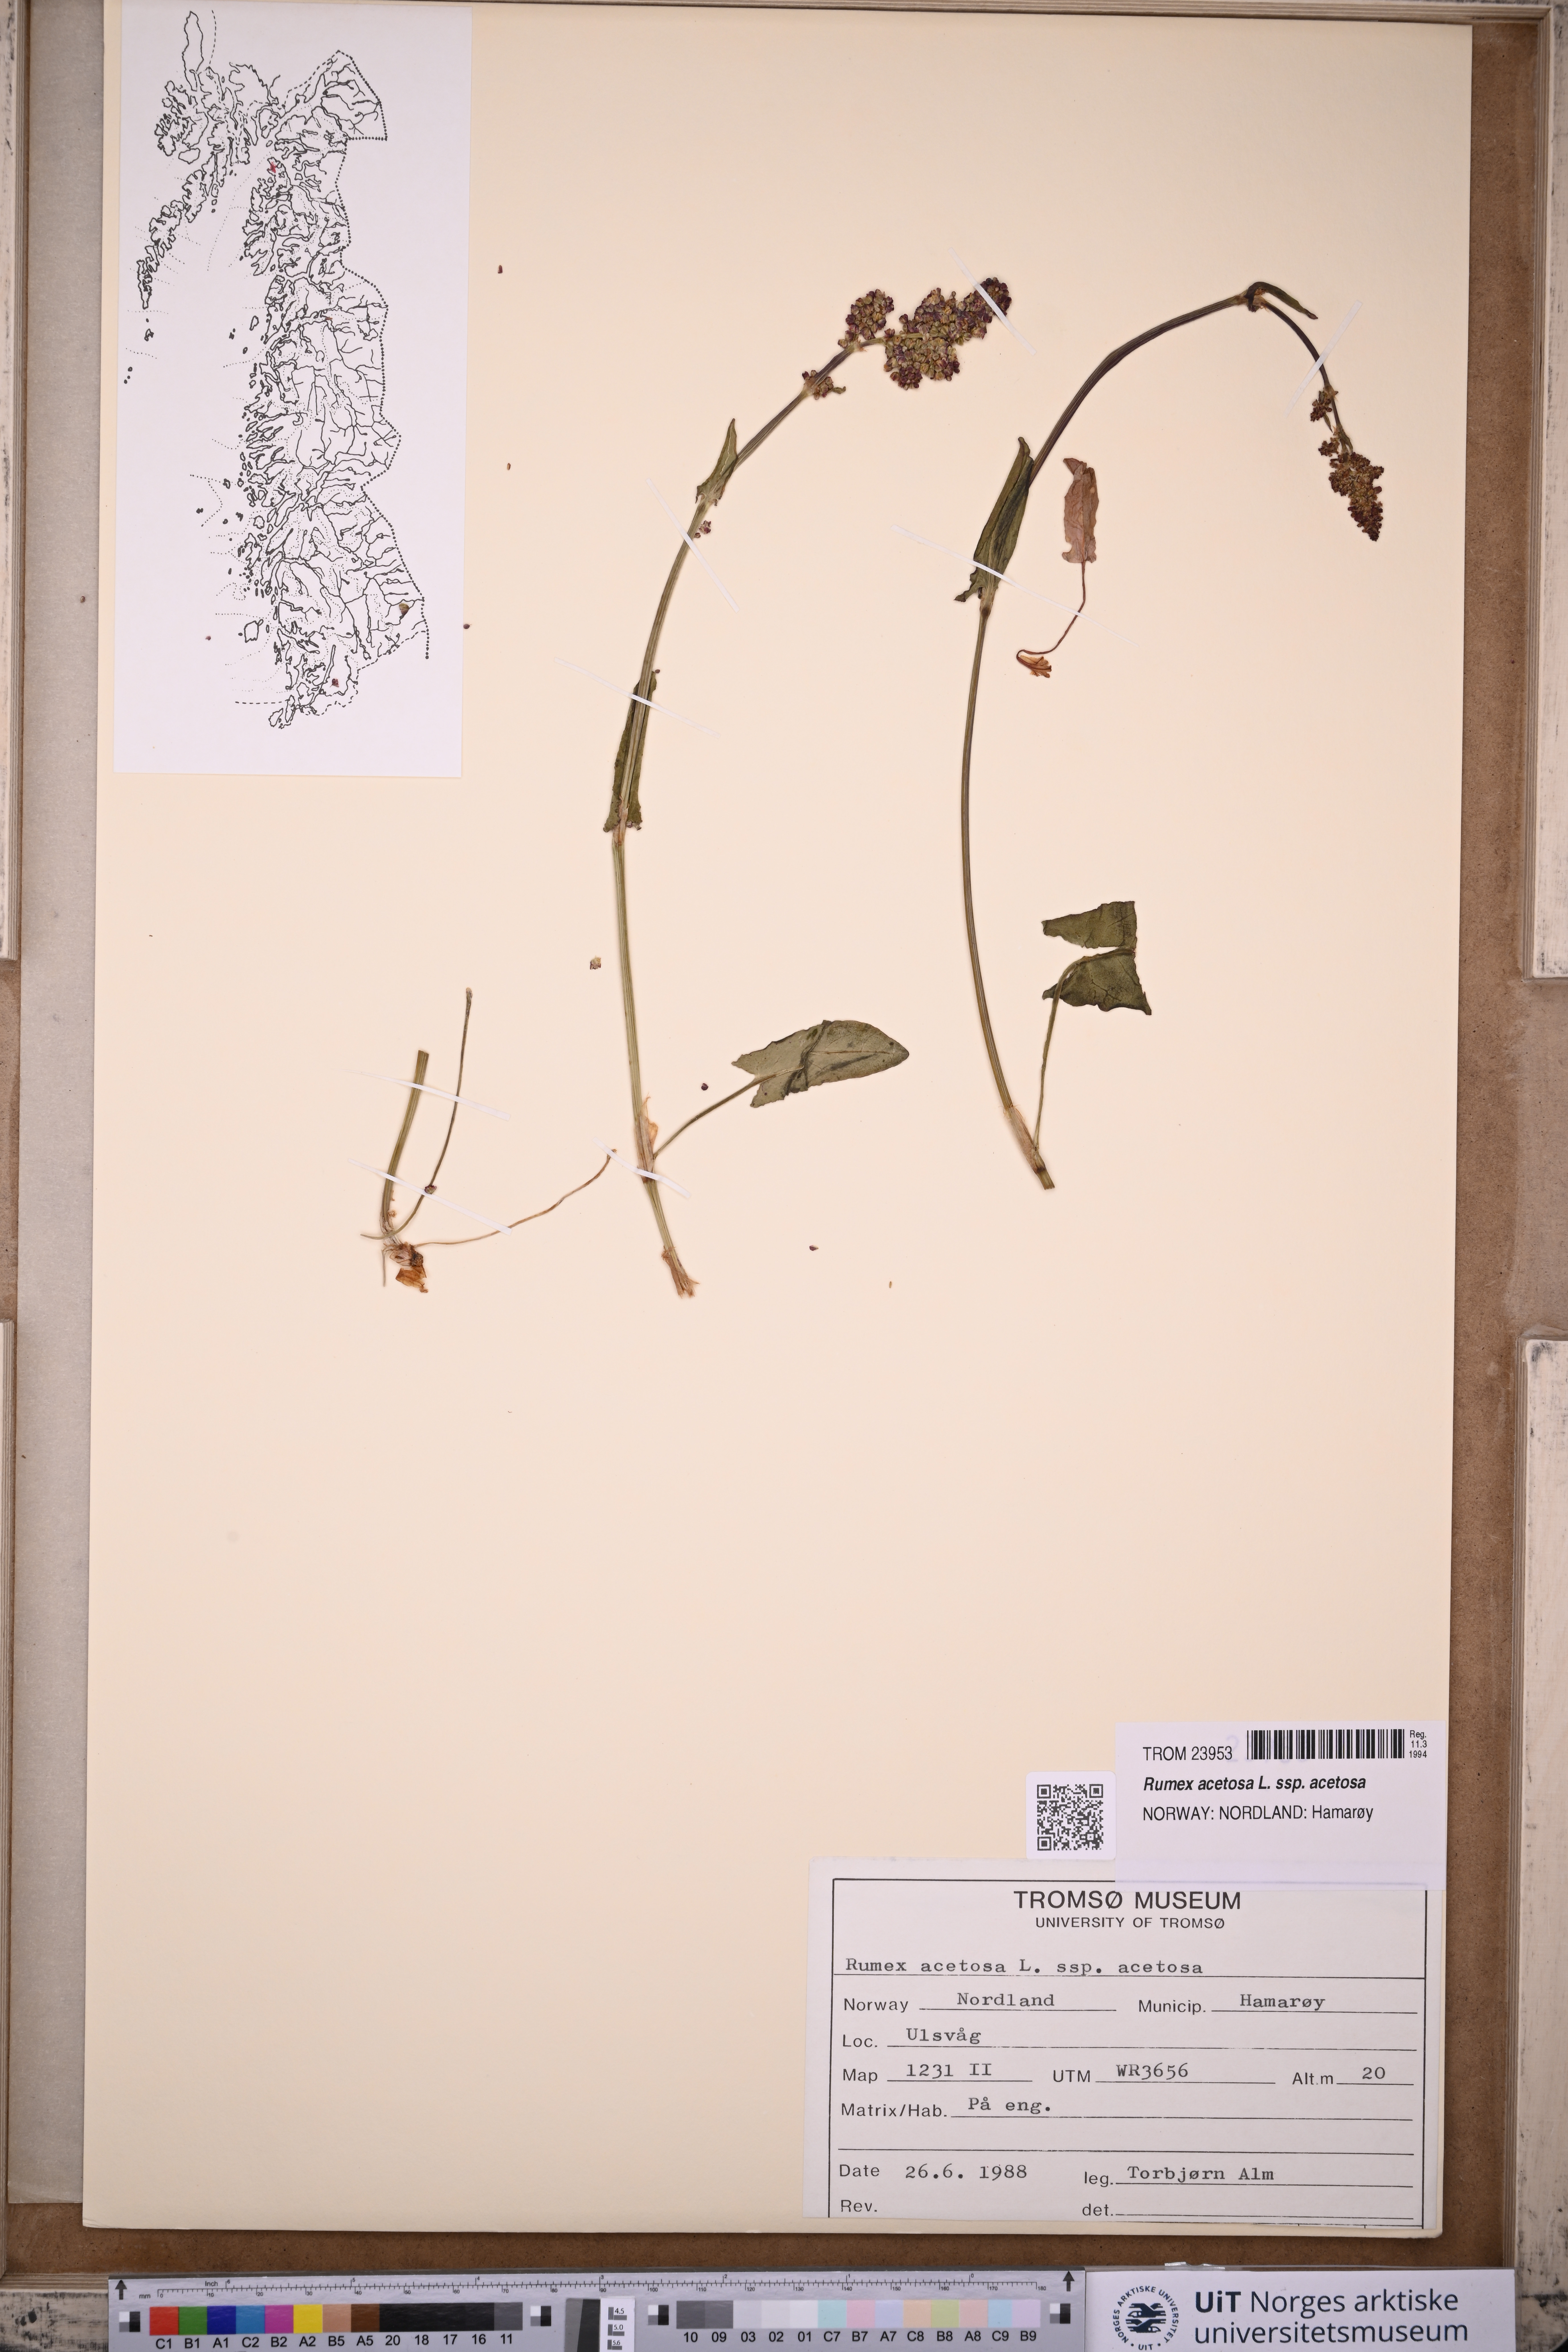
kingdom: Plantae
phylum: Tracheophyta
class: Magnoliopsida
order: Caryophyllales
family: Polygonaceae
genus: Rumex
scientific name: Rumex acetosa
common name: Garden sorrel
